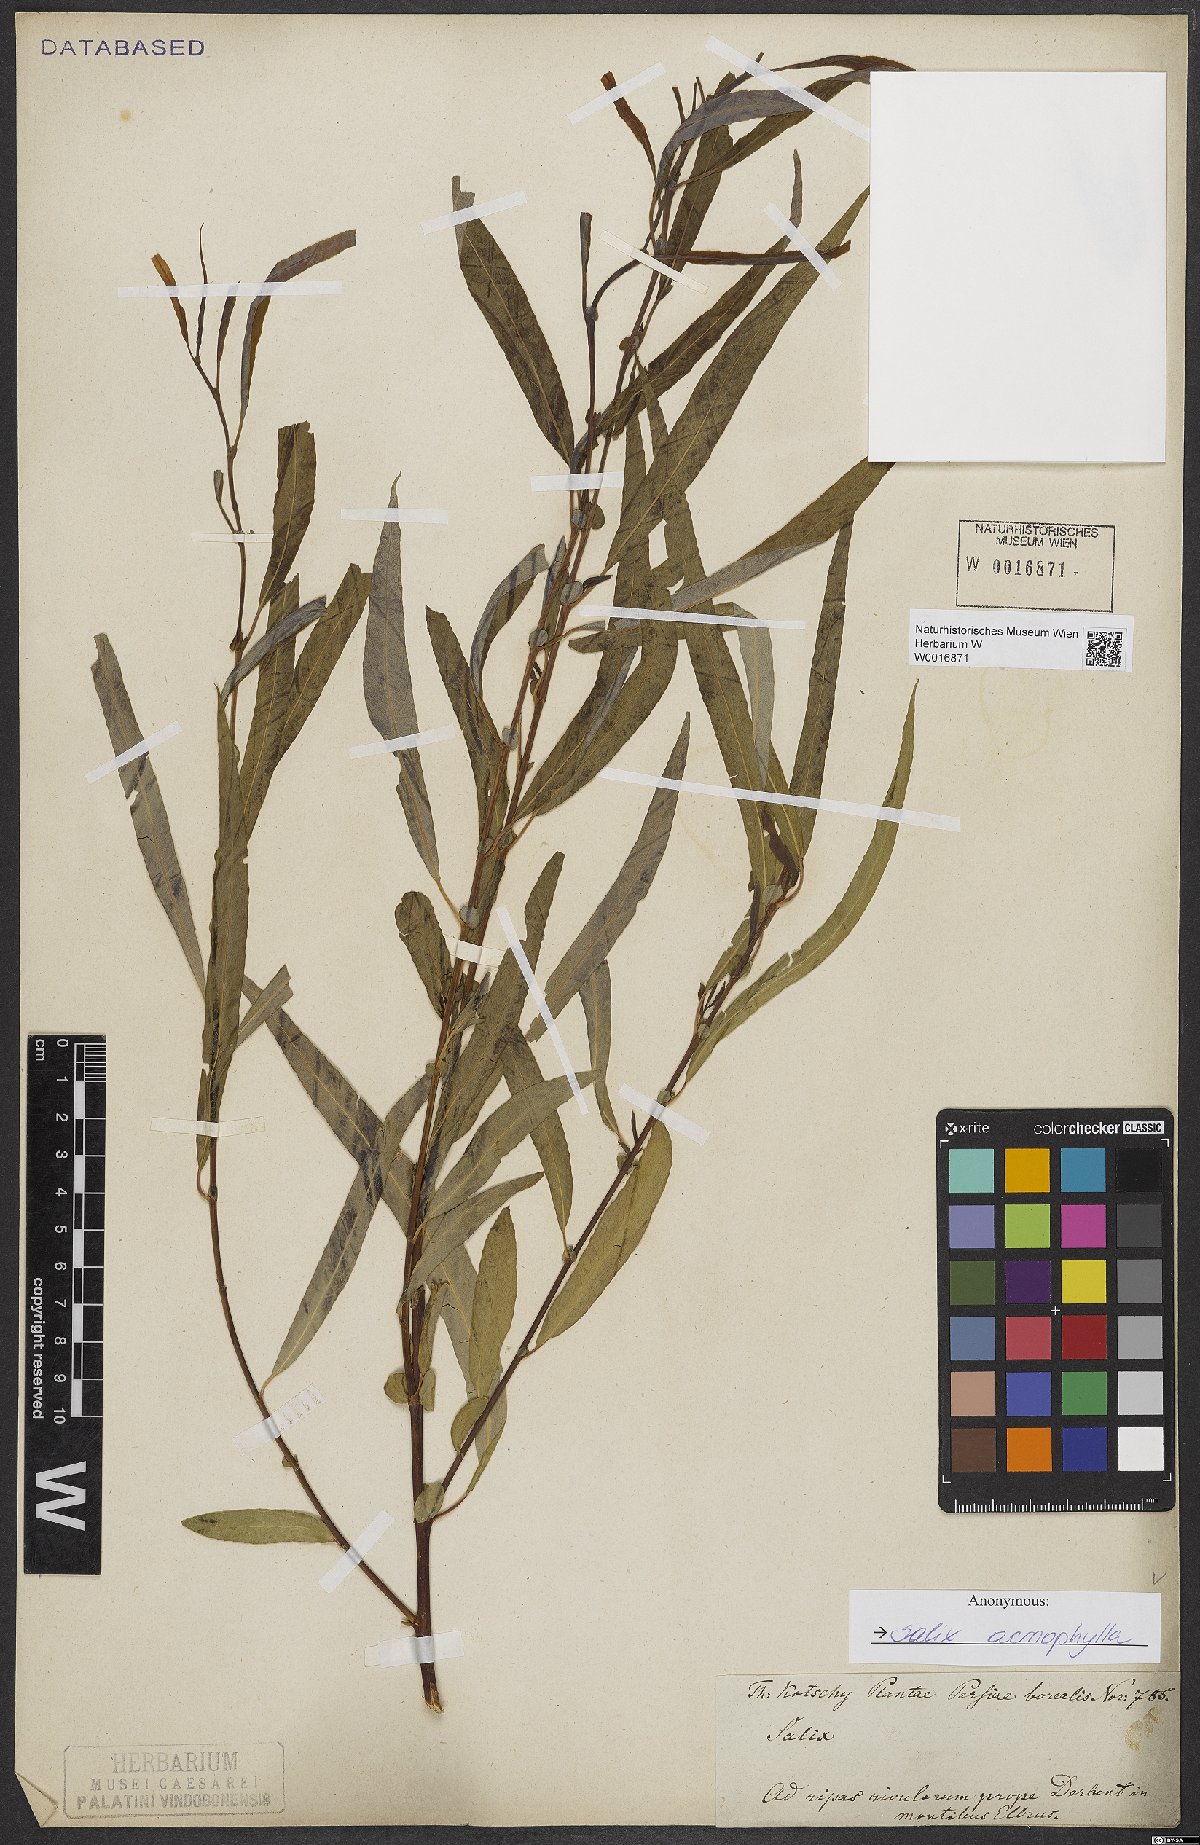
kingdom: Plantae
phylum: Tracheophyta
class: Magnoliopsida
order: Malpighiales
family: Salicaceae
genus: Salix
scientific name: Salix acmophylla
